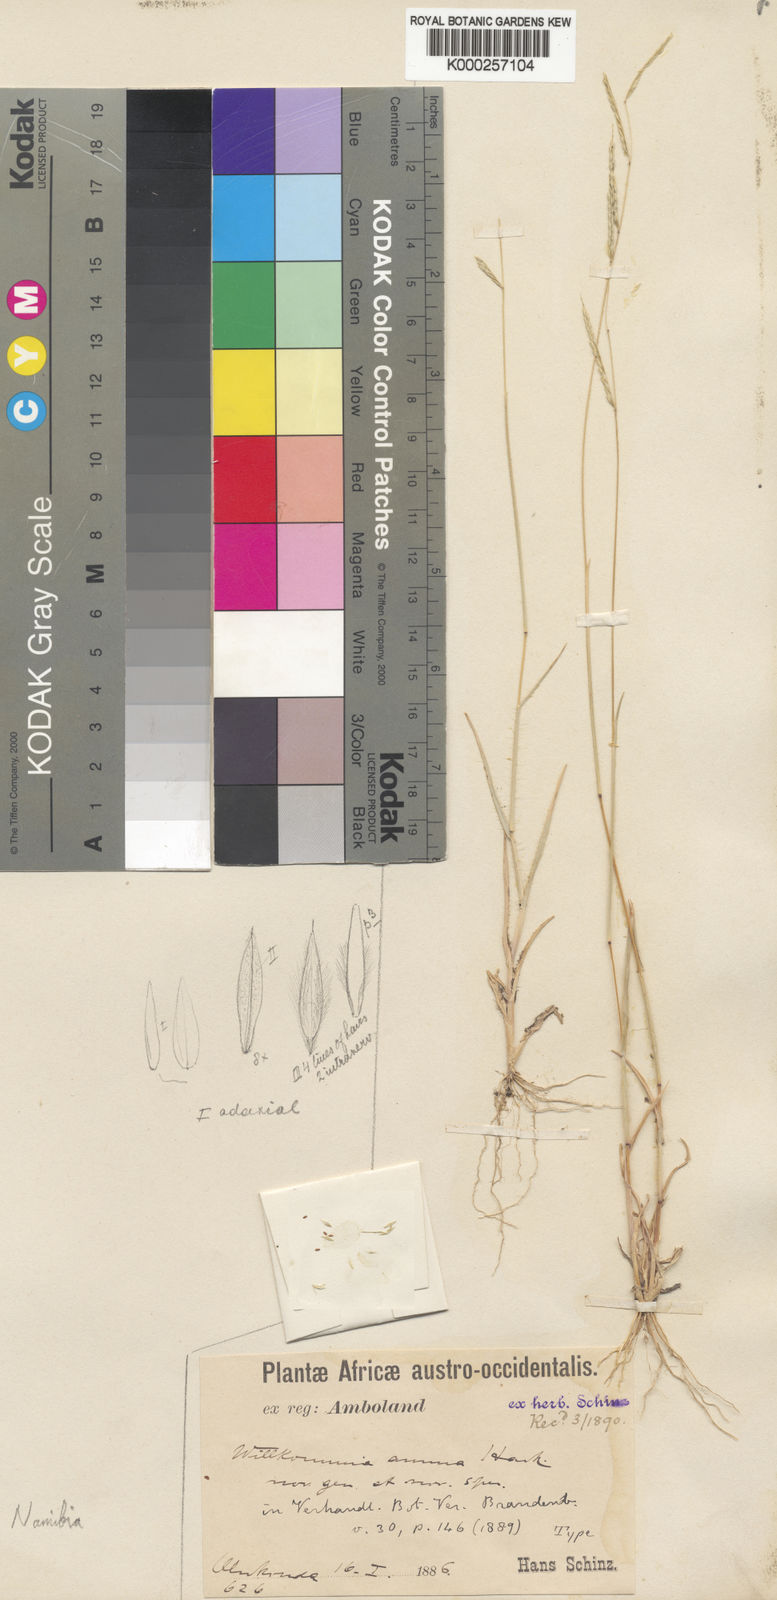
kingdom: Plantae
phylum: Tracheophyta
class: Liliopsida
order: Poales
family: Poaceae
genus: Willkommia
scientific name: Willkommia annua
